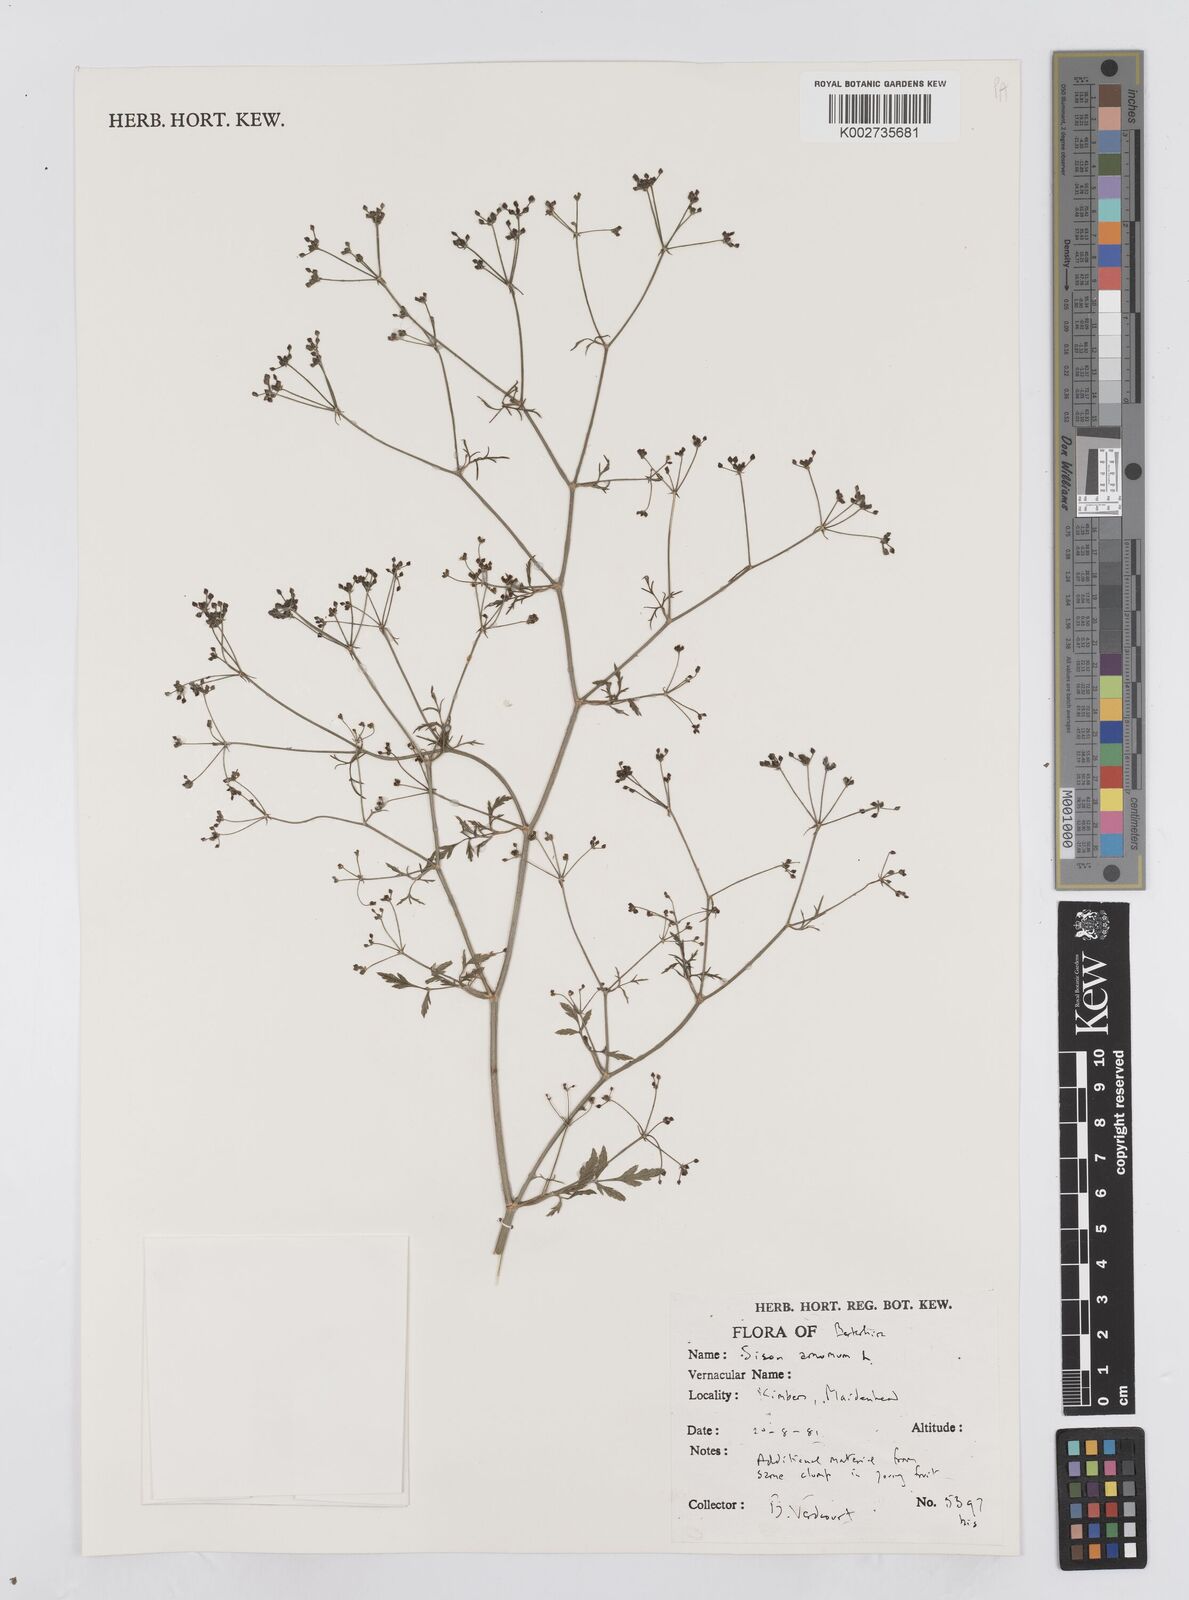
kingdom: Plantae
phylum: Tracheophyta
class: Magnoliopsida
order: Apiales
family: Apiaceae
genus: Sison
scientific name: Sison amomum
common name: Stone-parsley
